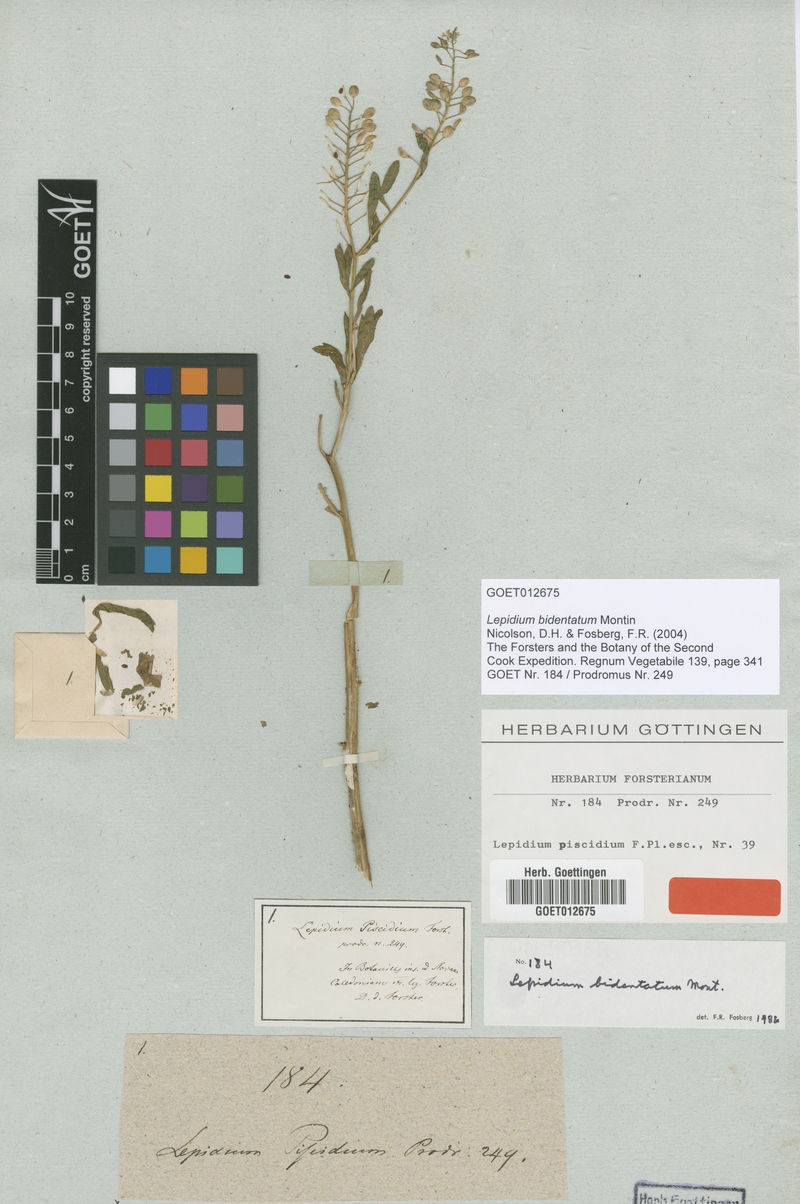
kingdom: Plantae
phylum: Tracheophyta
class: Magnoliopsida
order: Brassicales
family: Brassicaceae
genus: Lepidium
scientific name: Lepidium bidentatum
